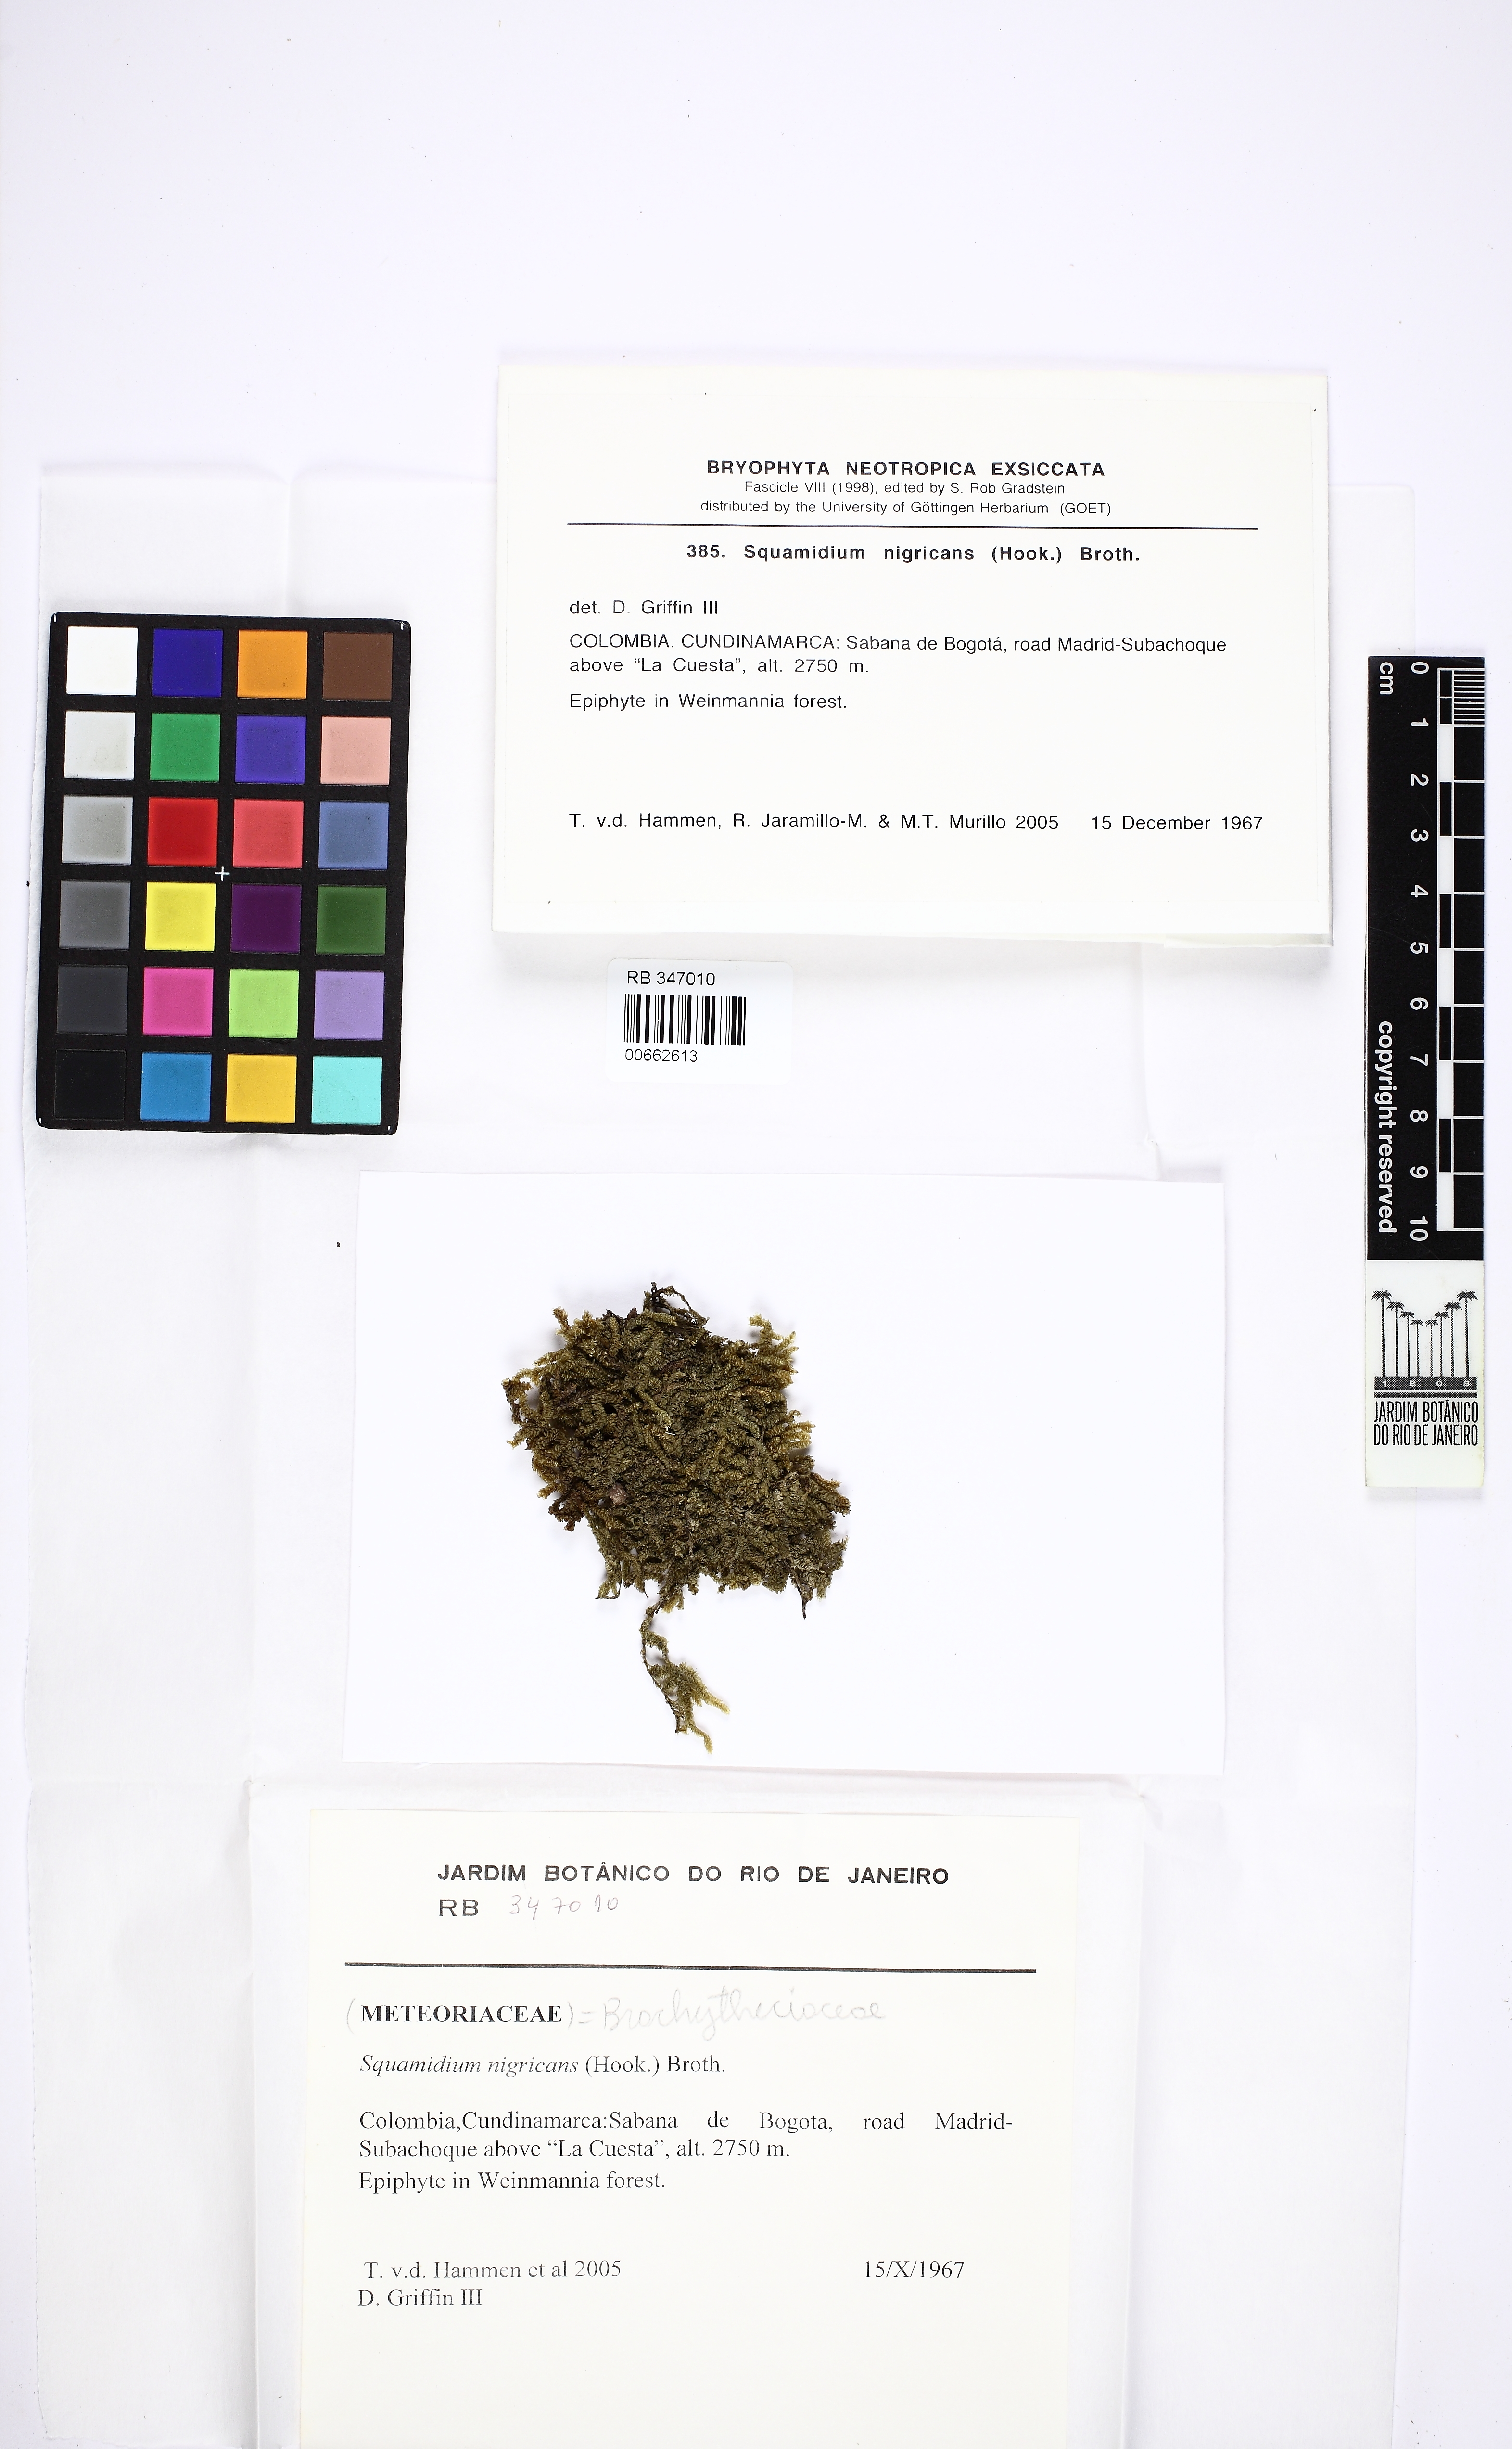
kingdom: Plantae
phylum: Bryophyta
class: Bryopsida
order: Hypnales
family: Brachytheciaceae
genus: Squamidium
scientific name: Squamidium nigricans
